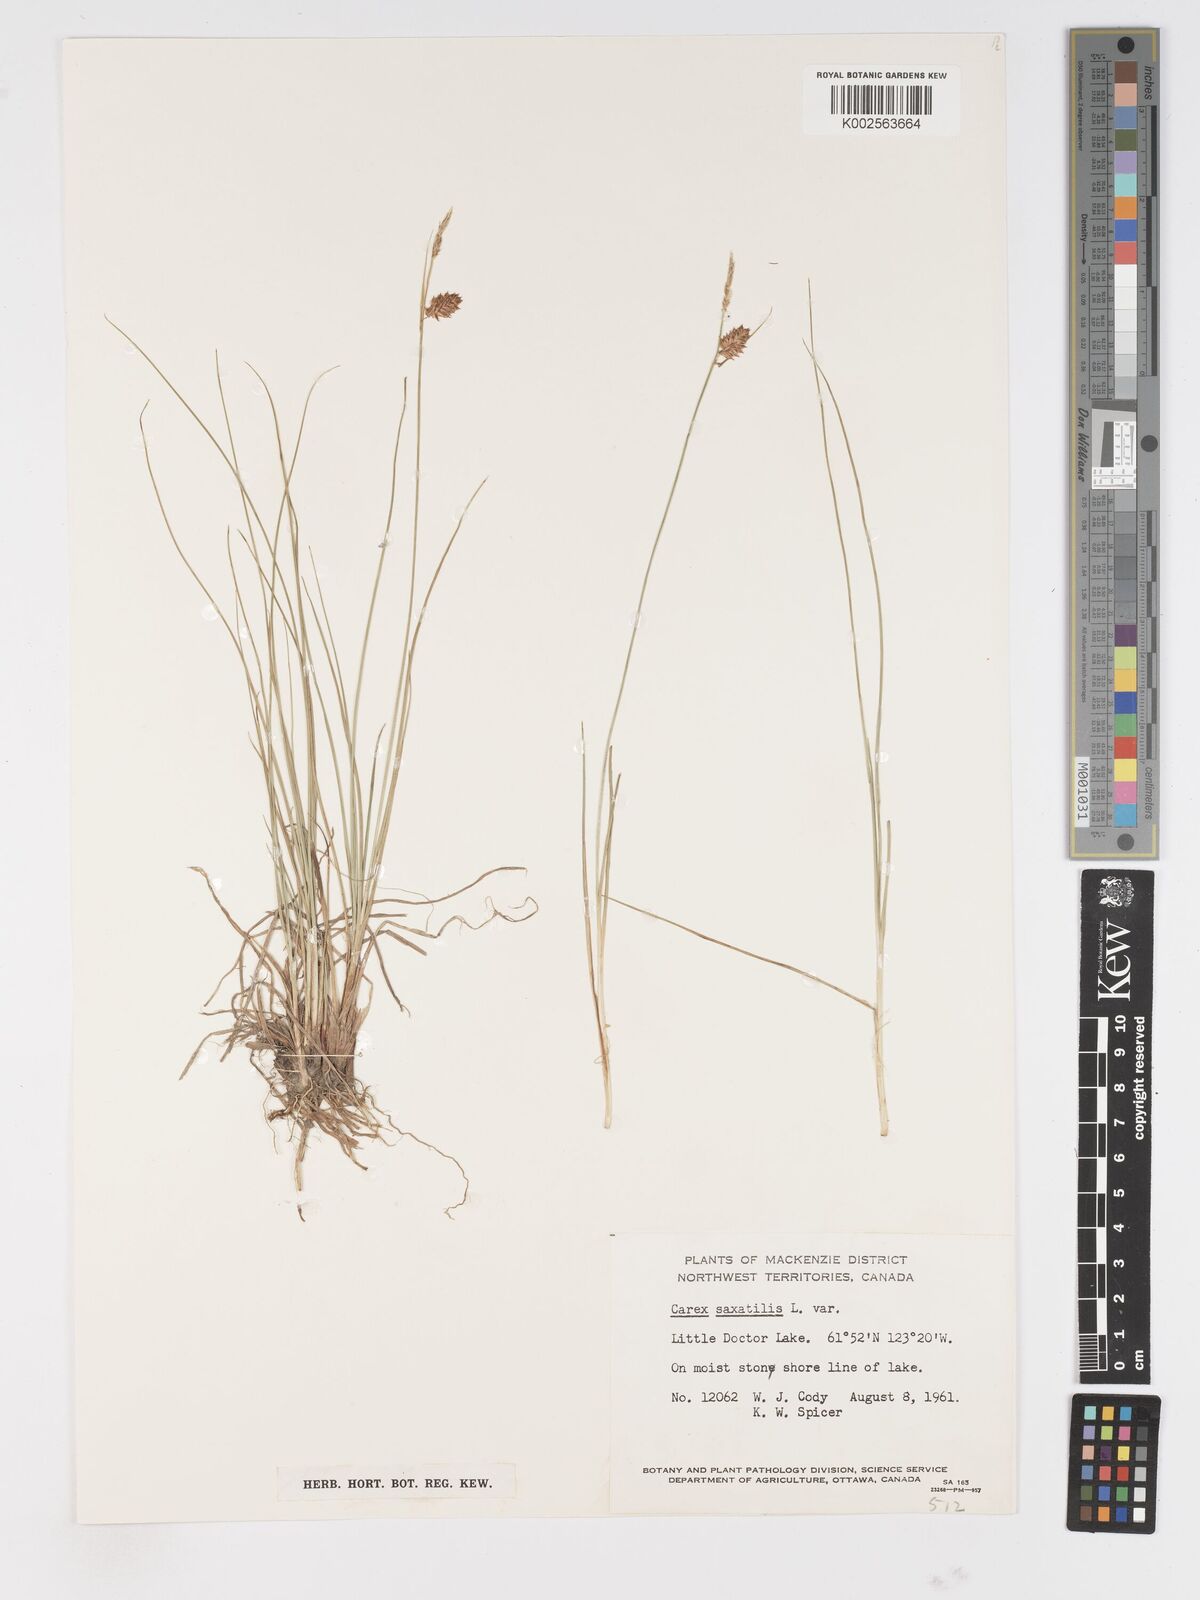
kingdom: Plantae
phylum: Tracheophyta
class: Liliopsida
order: Poales
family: Cyperaceae
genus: Carex
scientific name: Carex saxatilis
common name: Russet sedge
